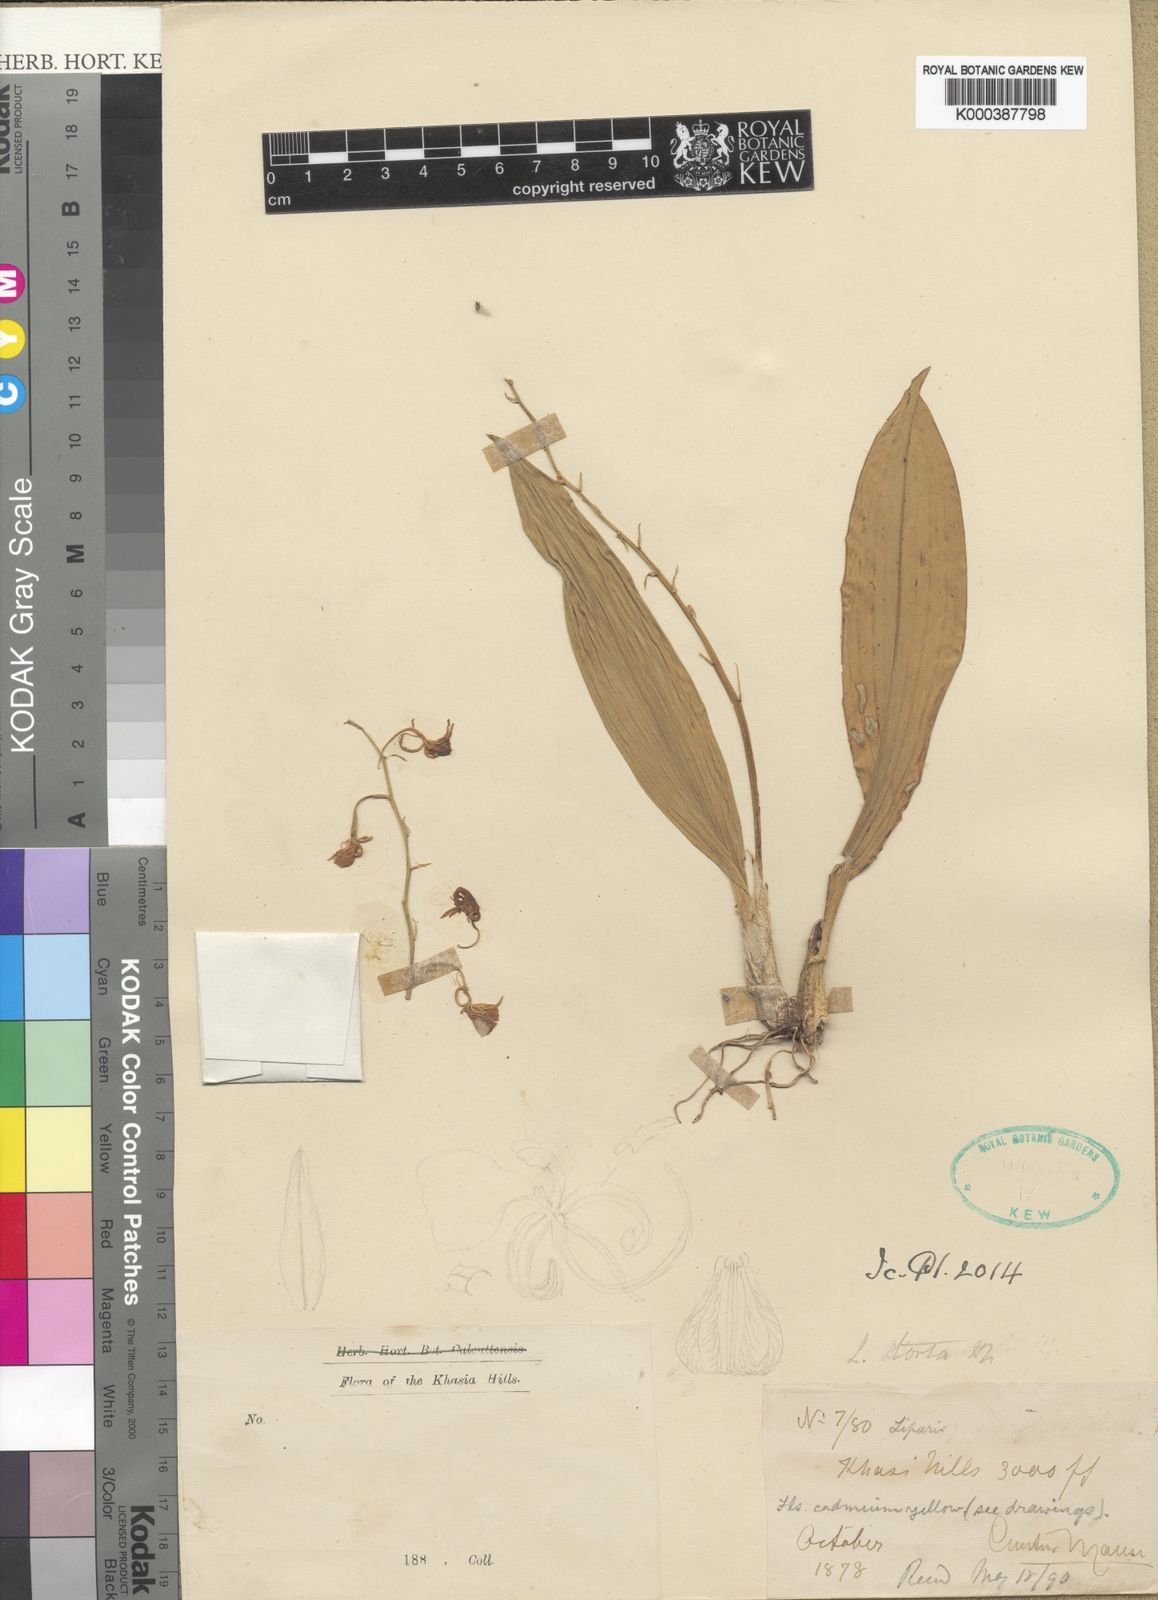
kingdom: Plantae
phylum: Tracheophyta
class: Liliopsida
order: Asparagales
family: Orchidaceae
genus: Liparis
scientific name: Liparis torta
